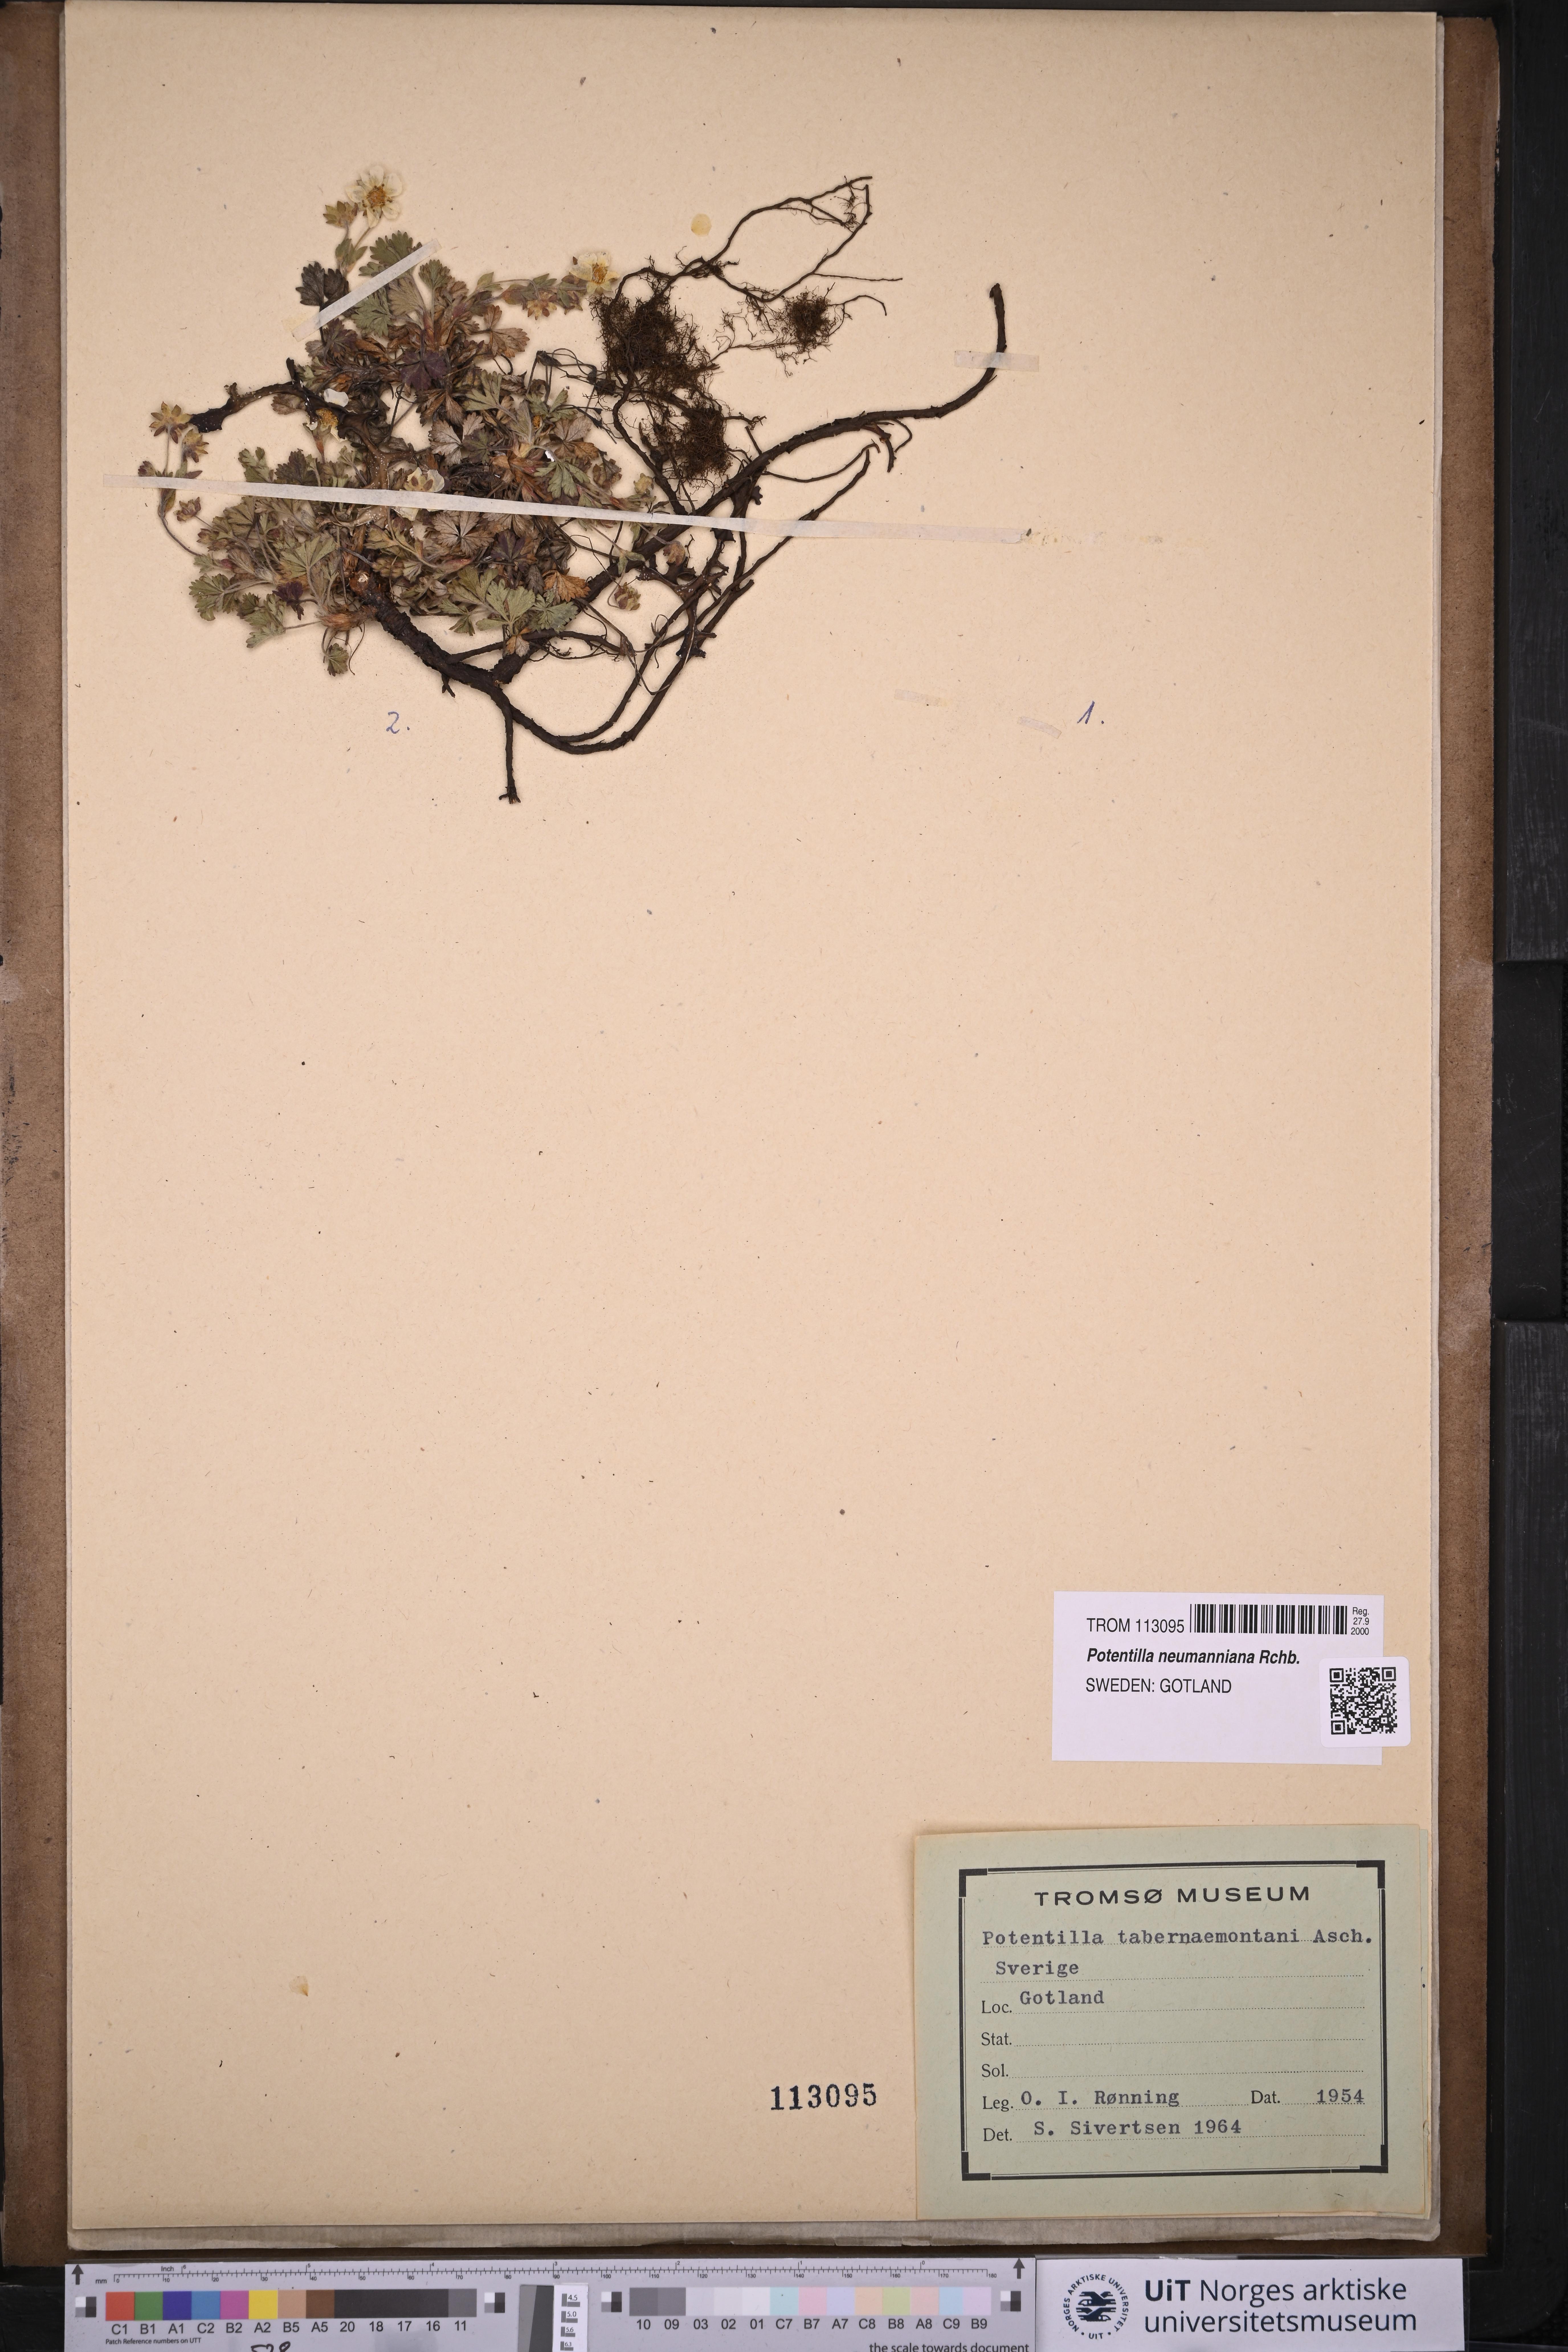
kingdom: Plantae
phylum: Tracheophyta
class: Magnoliopsida
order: Rosales
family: Rosaceae
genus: Potentilla
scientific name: Potentilla verna
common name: Spring cinquefoil
